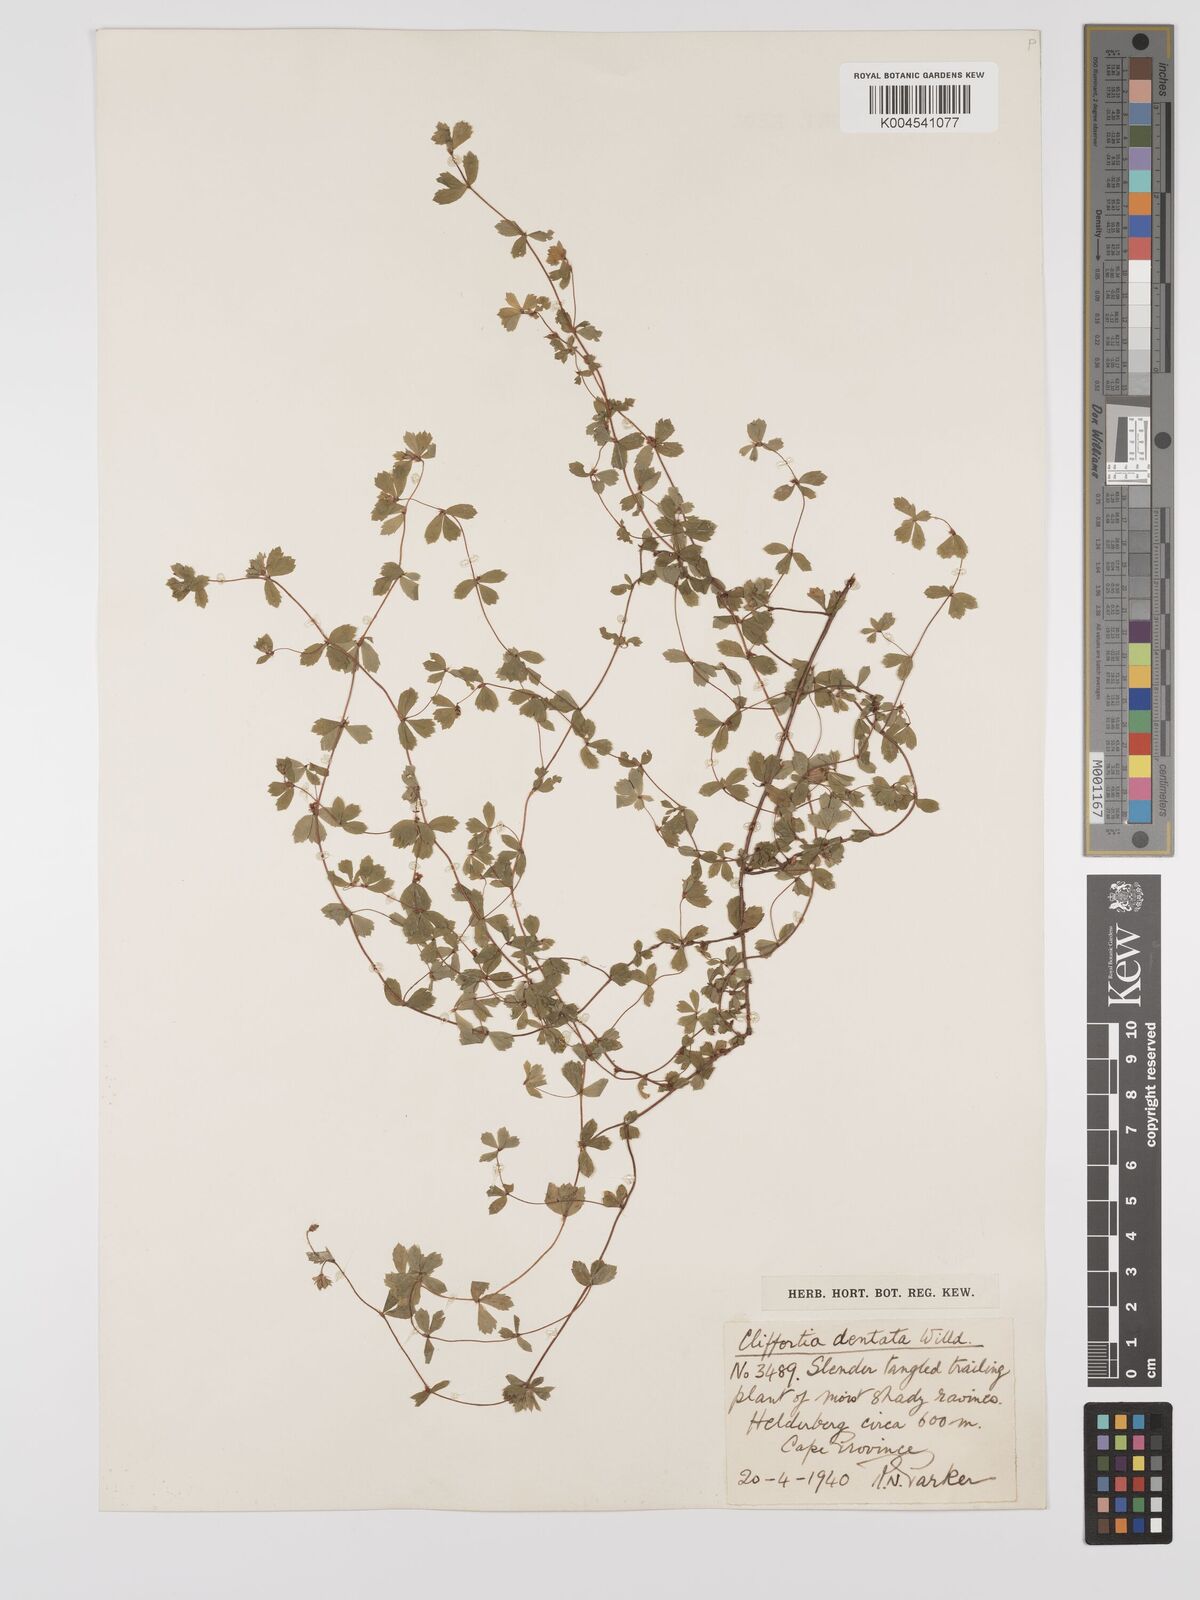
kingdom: Plantae
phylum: Tracheophyta
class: Magnoliopsida
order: Rosales
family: Rosaceae
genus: Cliffortia
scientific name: Cliffortia
